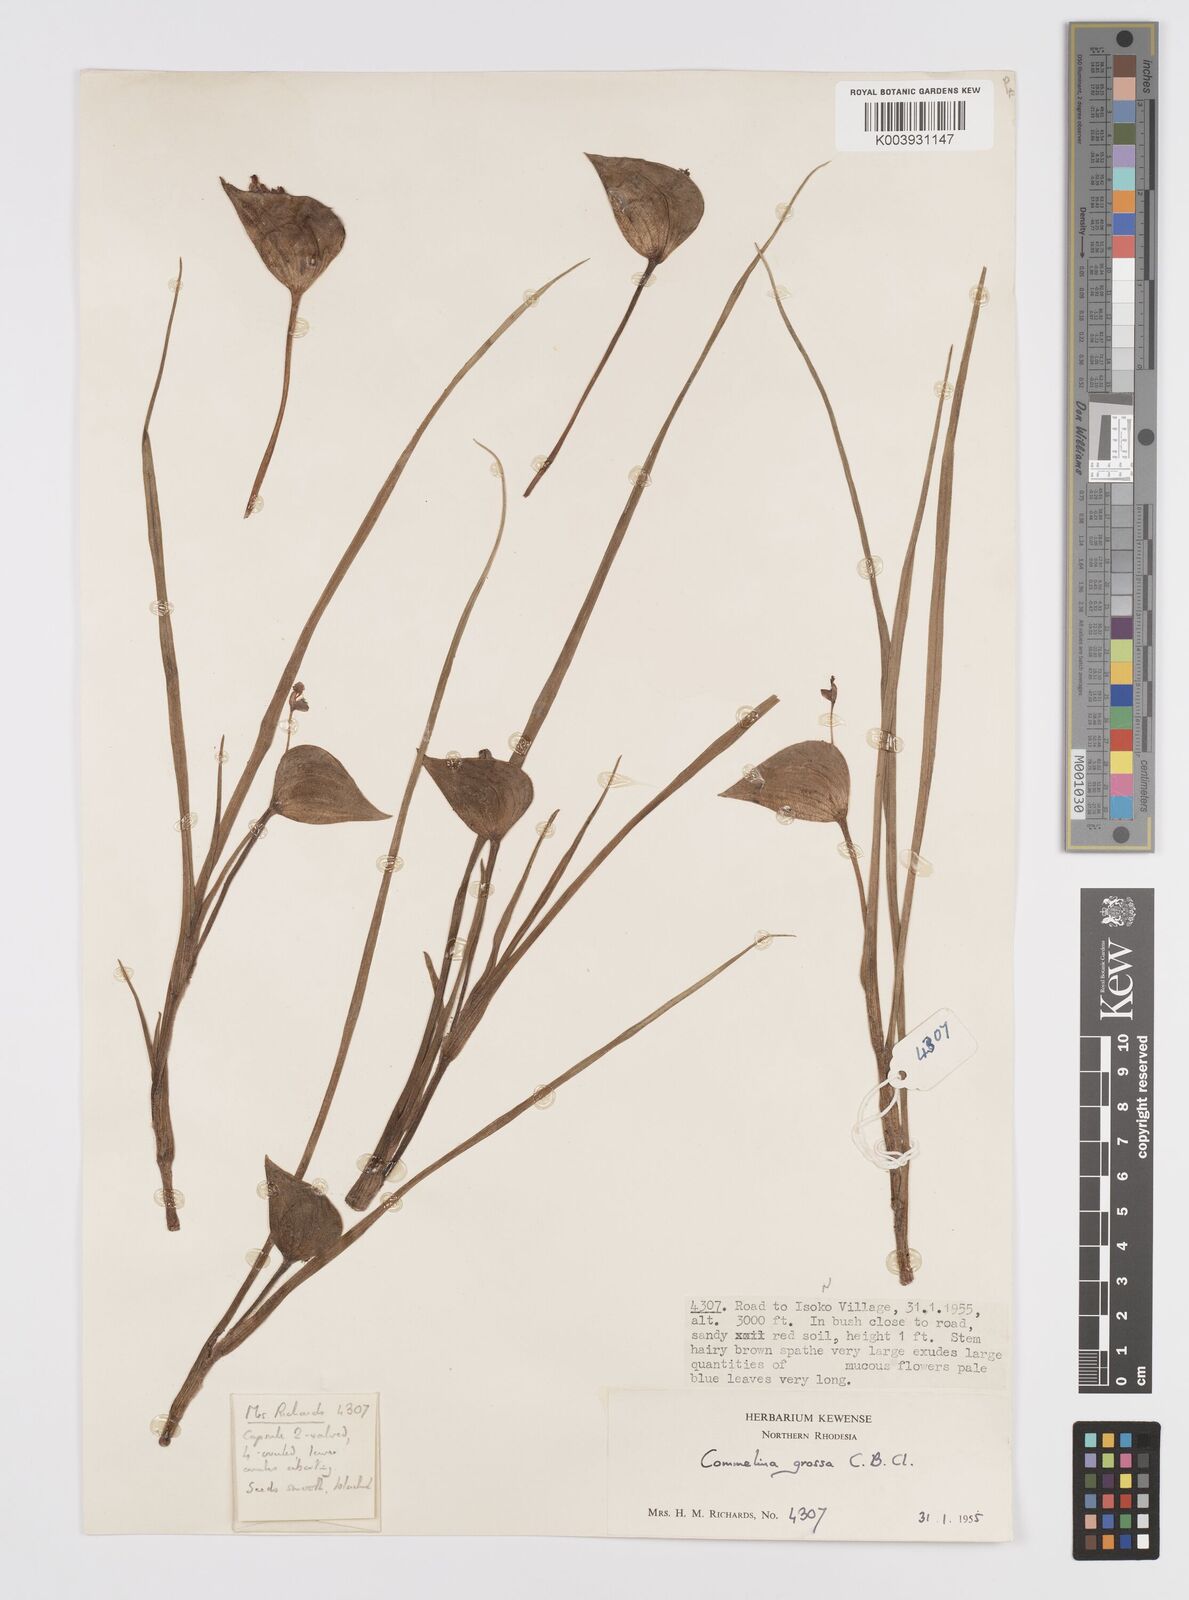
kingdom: Plantae
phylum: Tracheophyta
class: Liliopsida
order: Commelinales
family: Commelinaceae
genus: Commelina
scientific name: Commelina grossa
